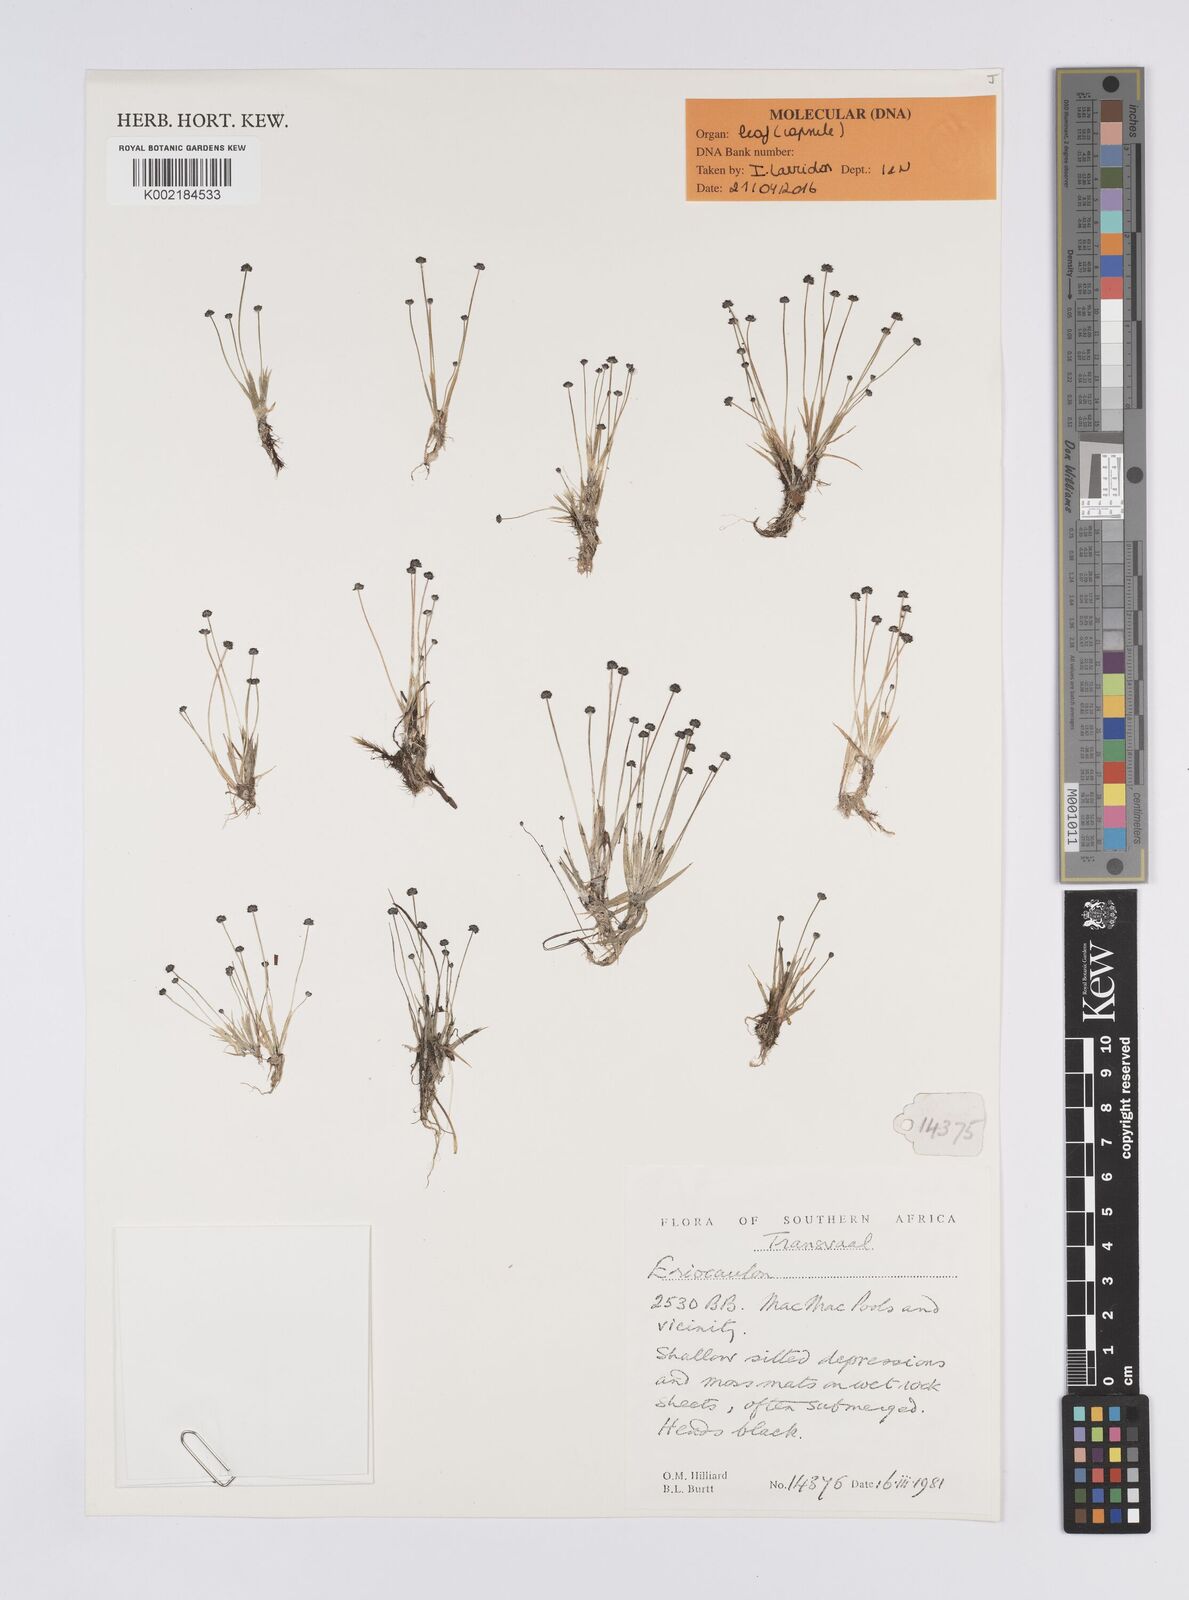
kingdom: Plantae
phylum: Tracheophyta
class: Liliopsida
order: Poales
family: Eriocaulaceae
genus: Eriocaulon
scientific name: Eriocaulon hydrophilum
